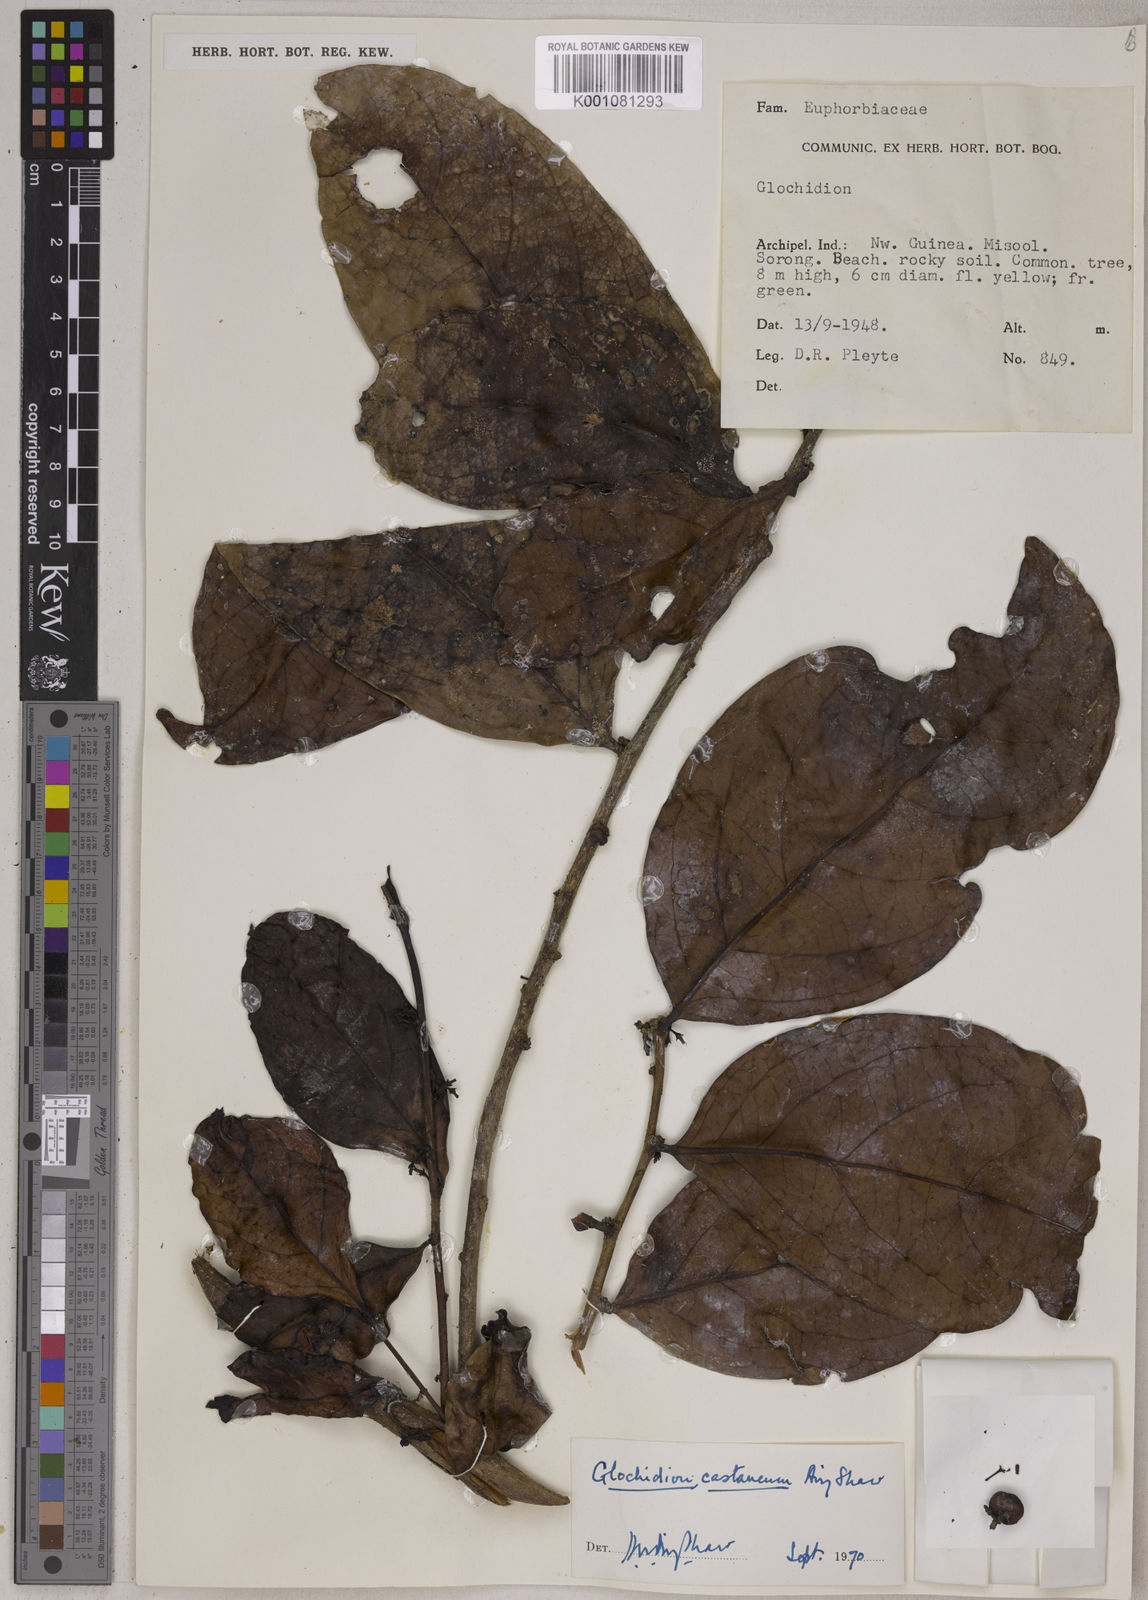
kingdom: Plantae
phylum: Tracheophyta
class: Magnoliopsida
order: Malpighiales
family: Phyllanthaceae
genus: Glochidion
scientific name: Glochidion castaneum
